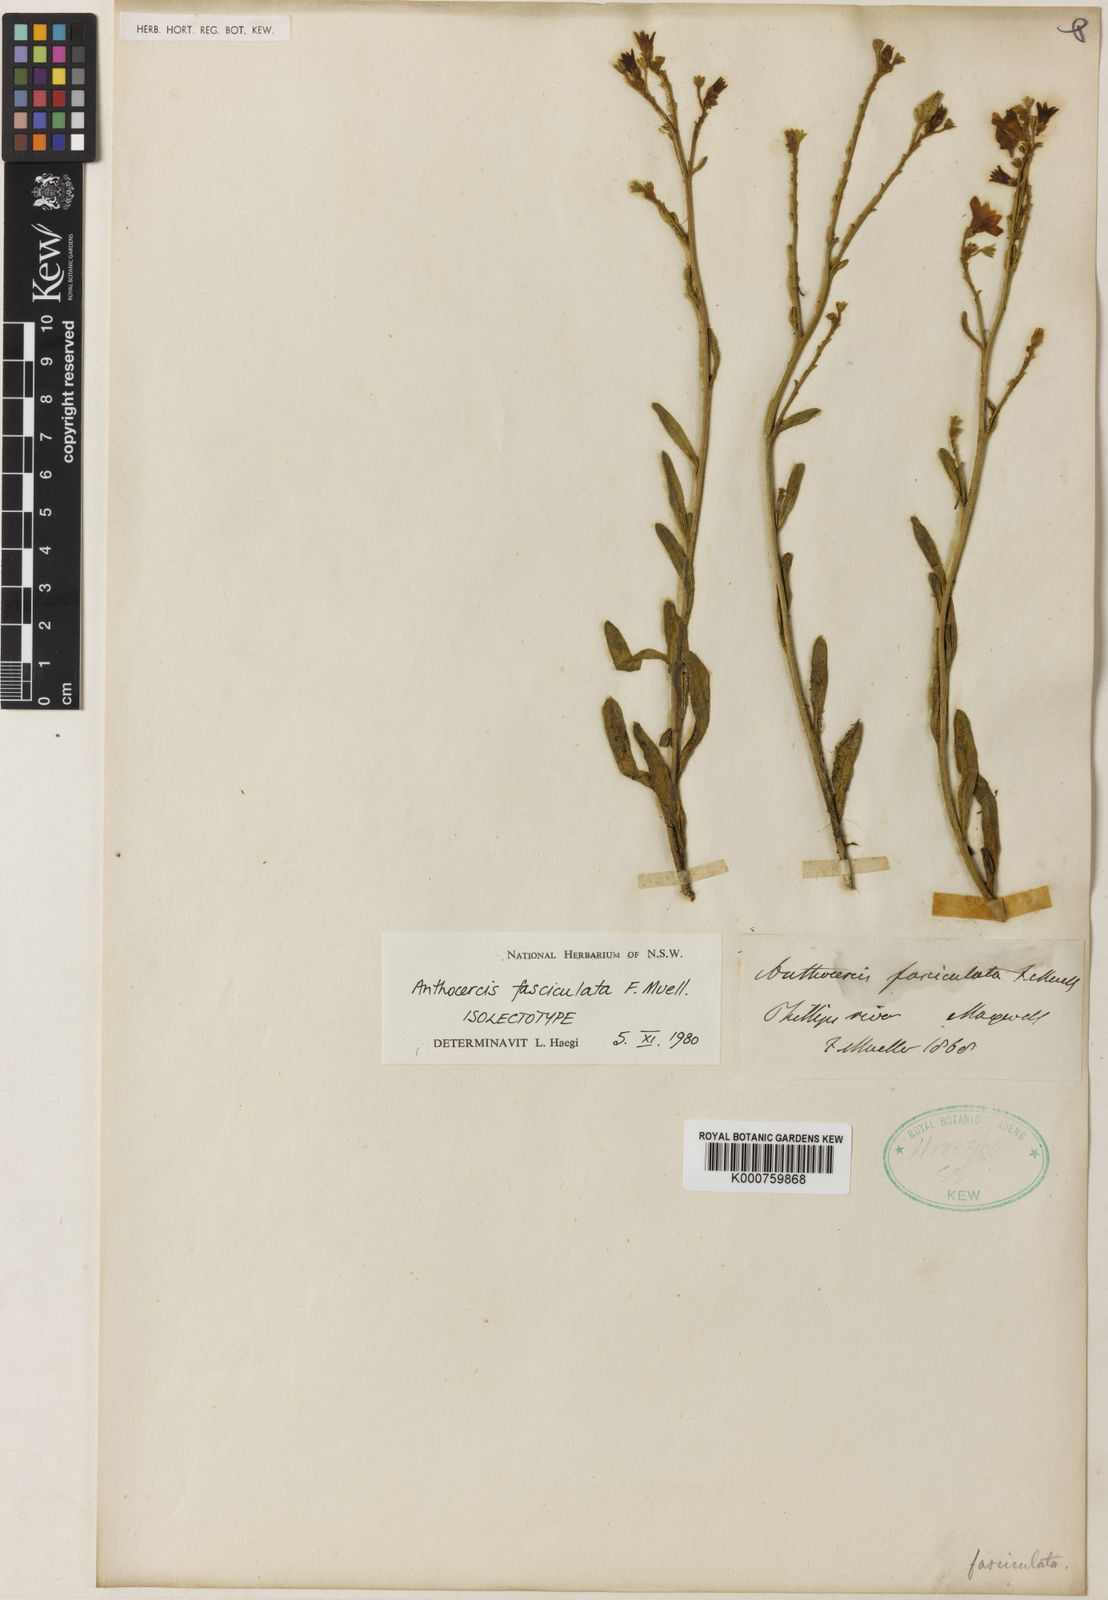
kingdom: Plantae
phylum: Tracheophyta
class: Magnoliopsida
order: Solanales
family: Solanaceae
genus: Anthocercis
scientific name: Anthocercis fasciculata
